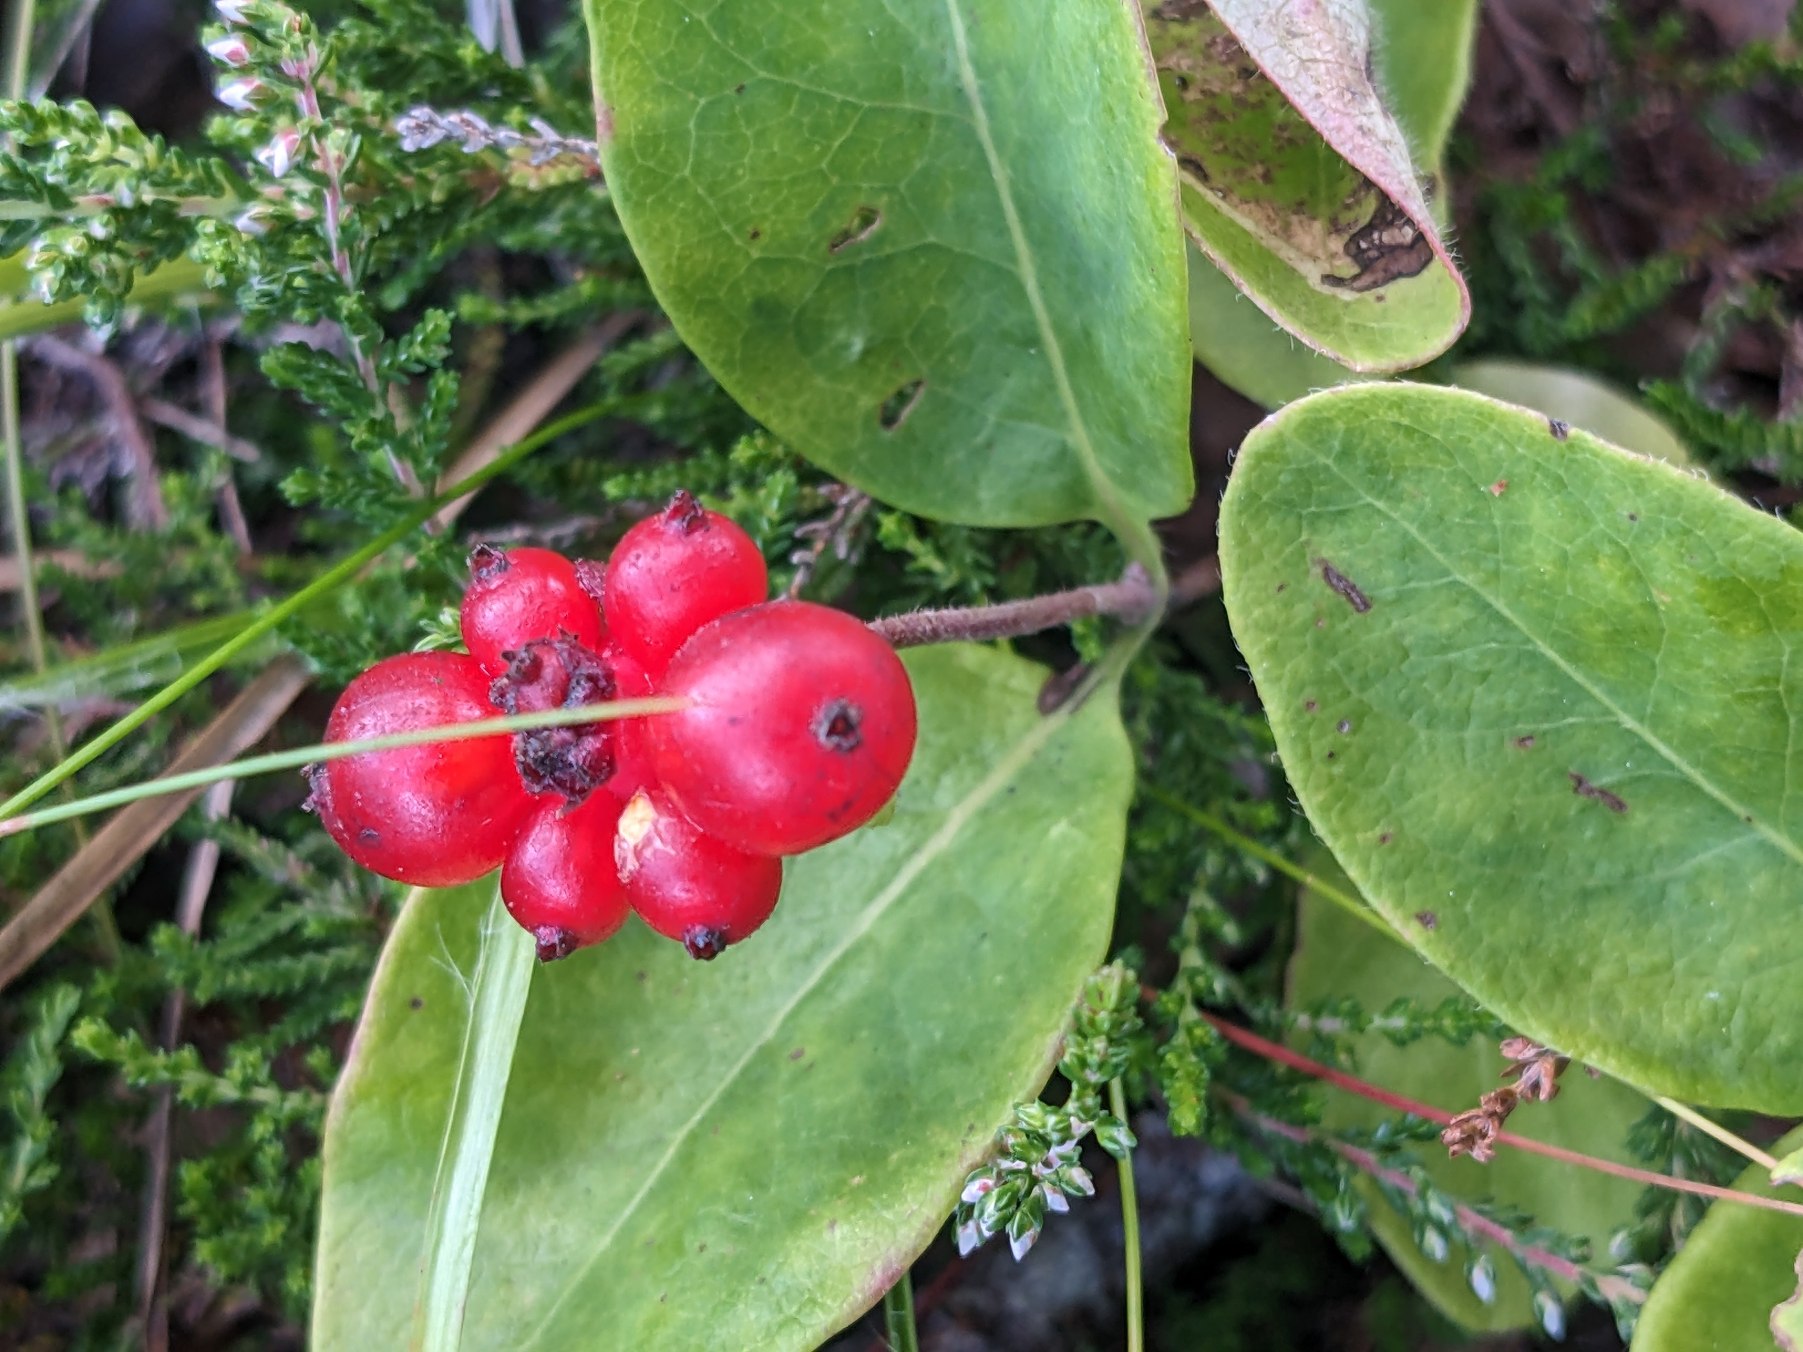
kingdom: Plantae
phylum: Tracheophyta
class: Magnoliopsida
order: Dipsacales
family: Caprifoliaceae
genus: Lonicera
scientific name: Lonicera periclymenum
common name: Almindelig gedeblad
